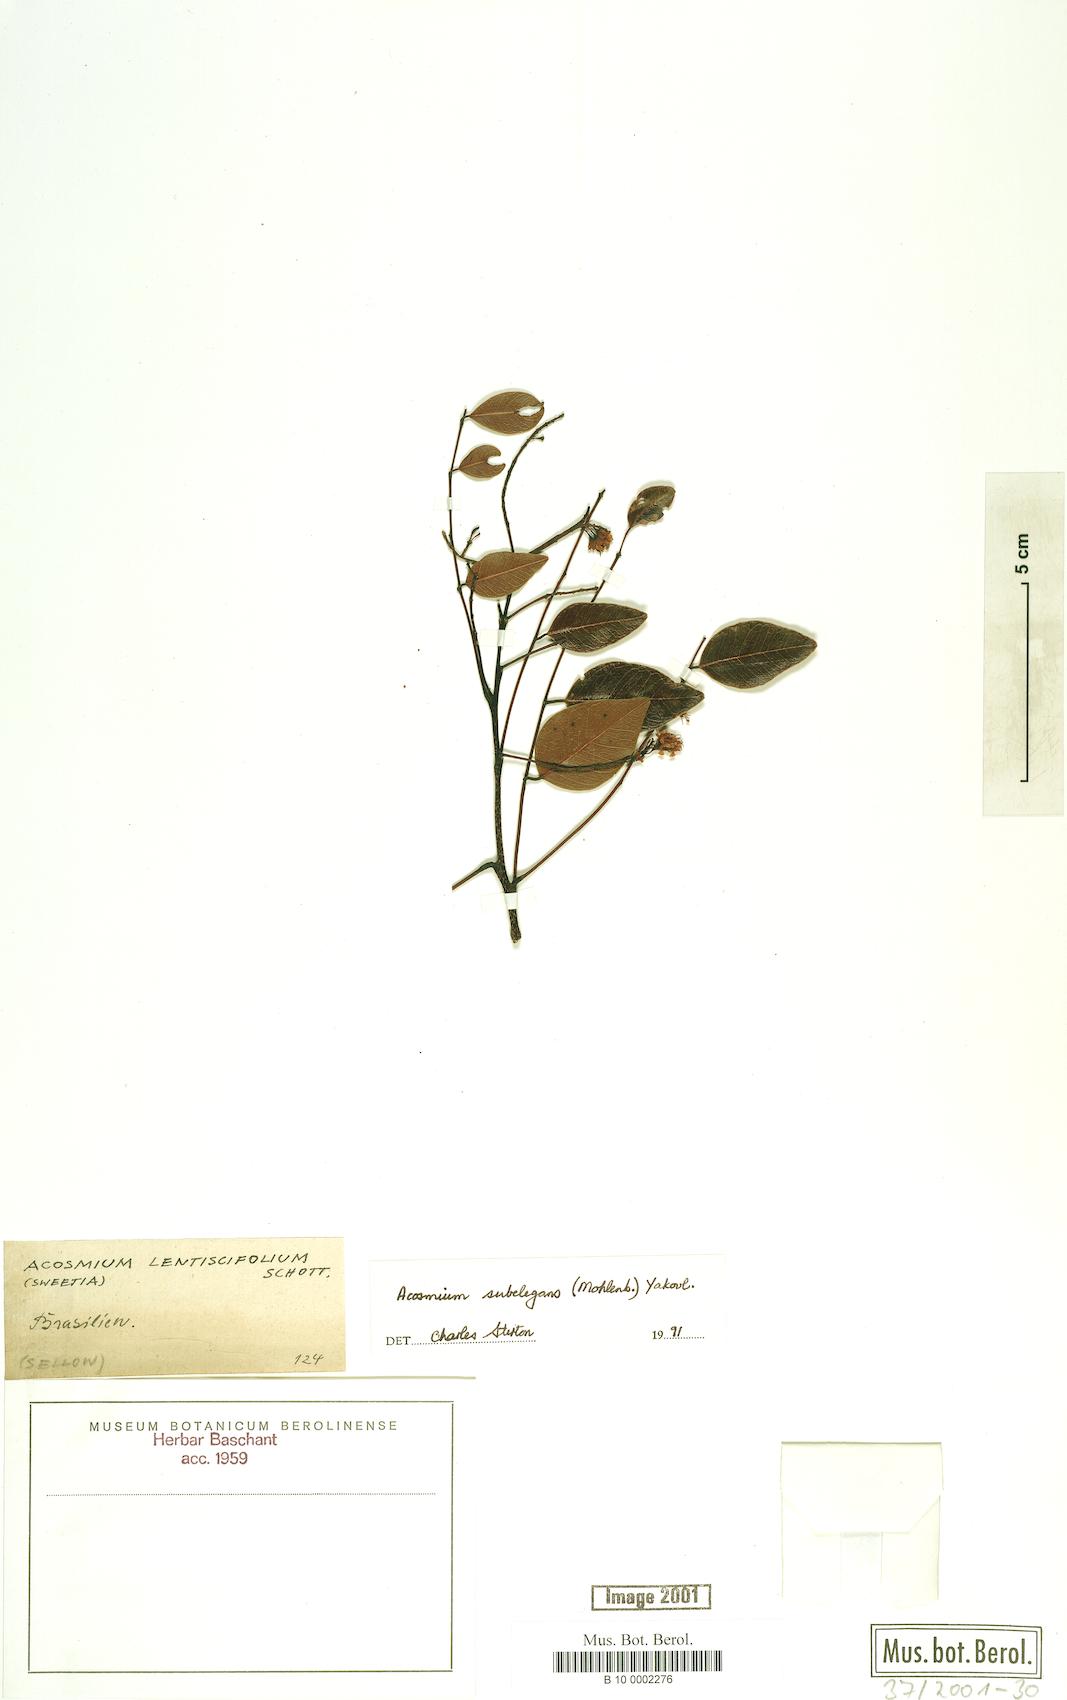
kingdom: Plantae
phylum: Tracheophyta
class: Magnoliopsida
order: Fabales
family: Fabaceae
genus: Leptolobium
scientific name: Leptolobium elegans
